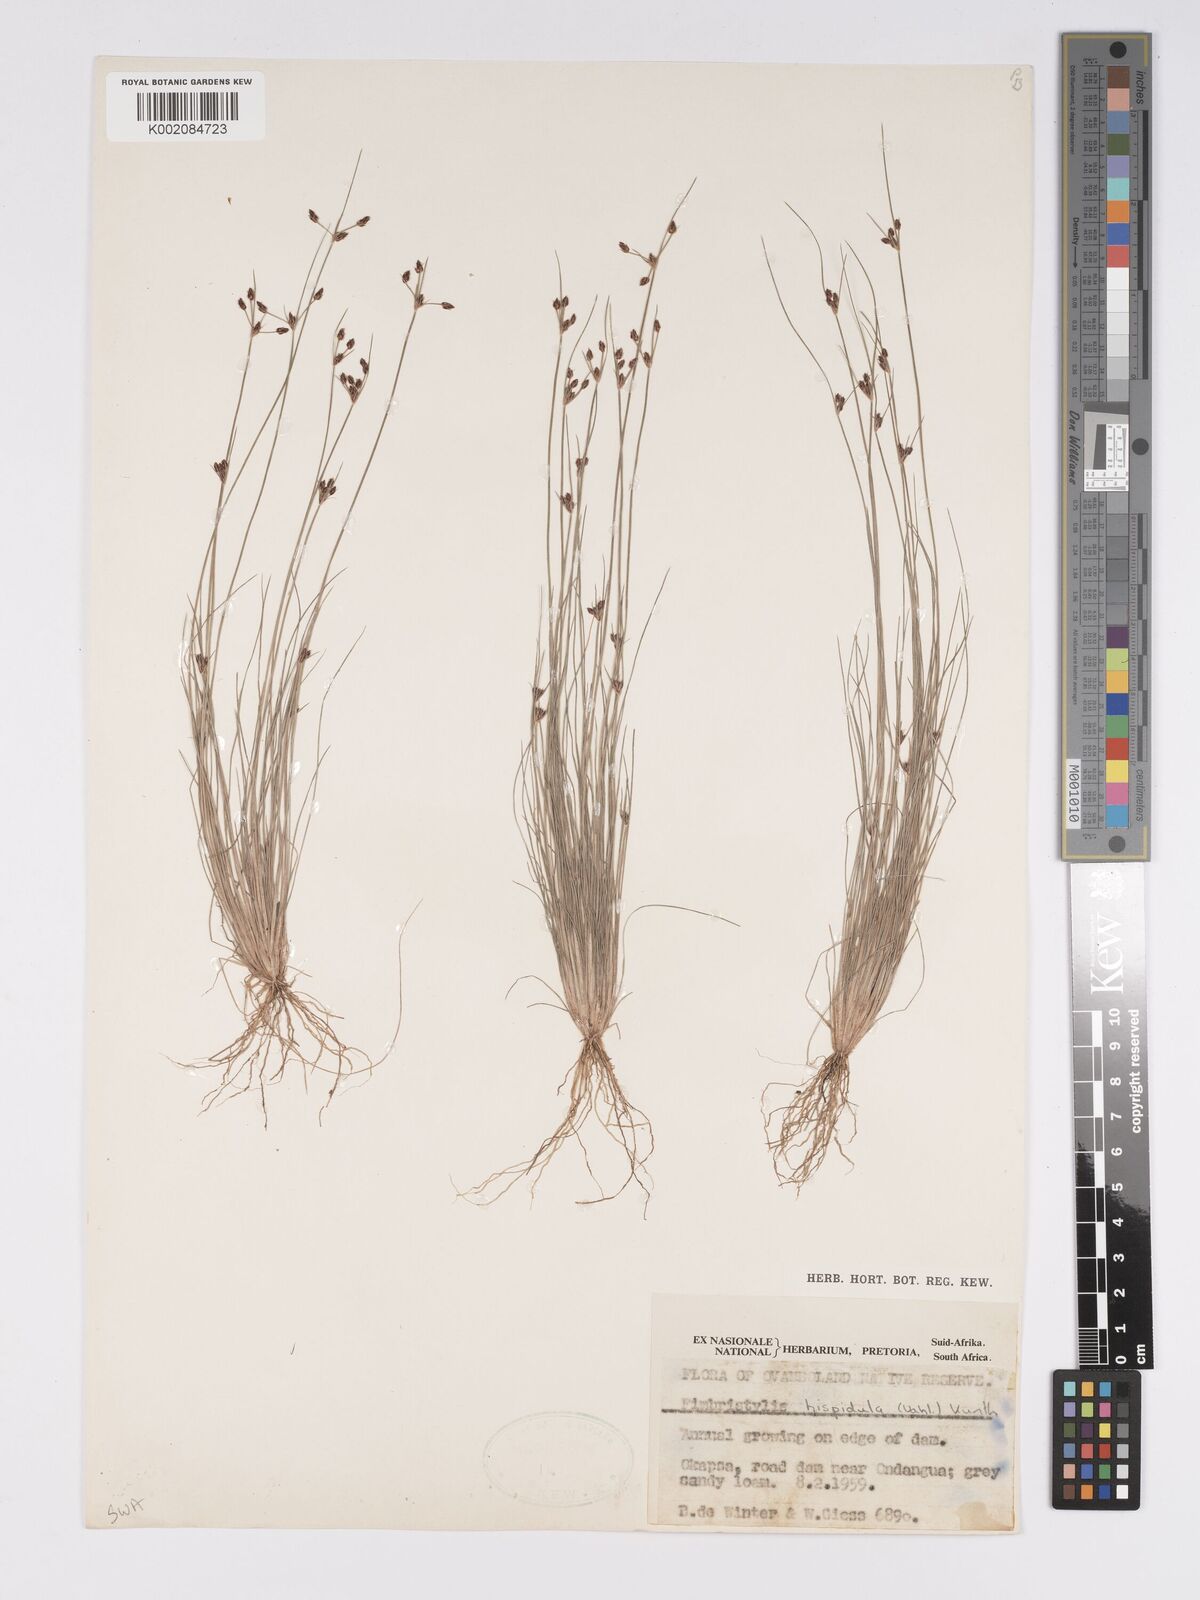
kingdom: Plantae
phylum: Tracheophyta
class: Liliopsida
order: Poales
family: Cyperaceae
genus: Bulbostylis
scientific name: Bulbostylis hispidula
